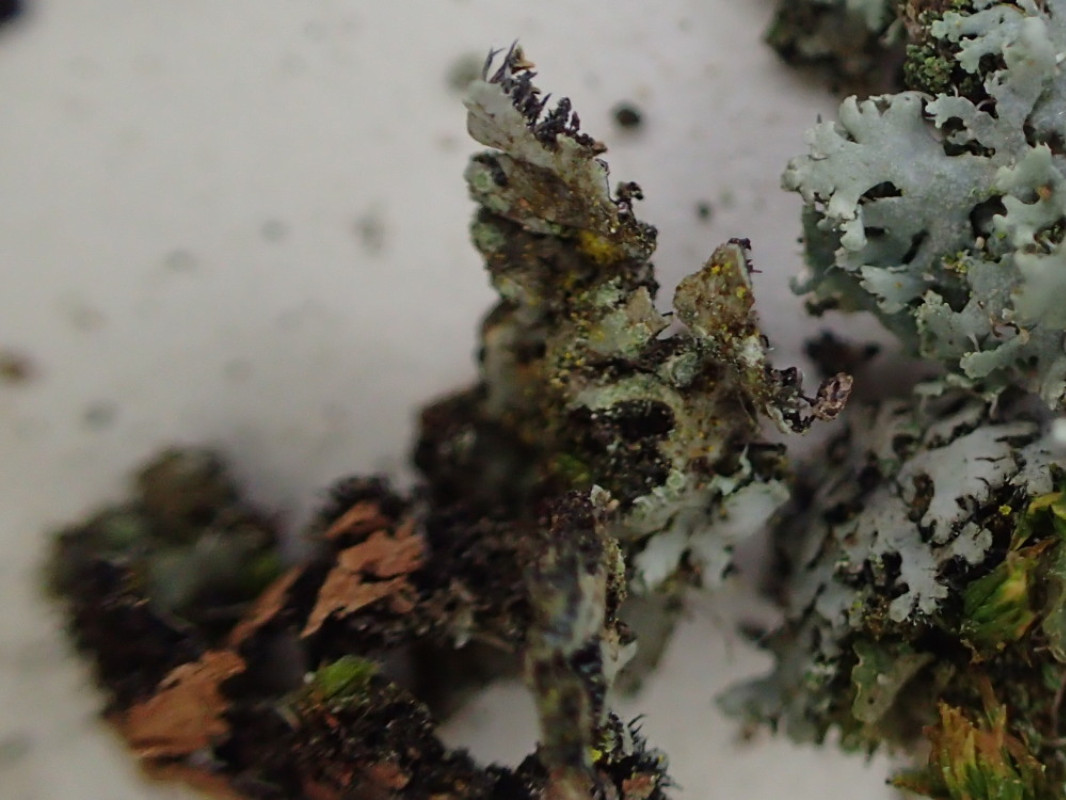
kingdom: Fungi
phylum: Ascomycota
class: Lecanoromycetes
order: Caliciales
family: Physciaceae
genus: Phaeophyscia
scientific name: Phaeophyscia orbicularis
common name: grågrøn rosetlav
